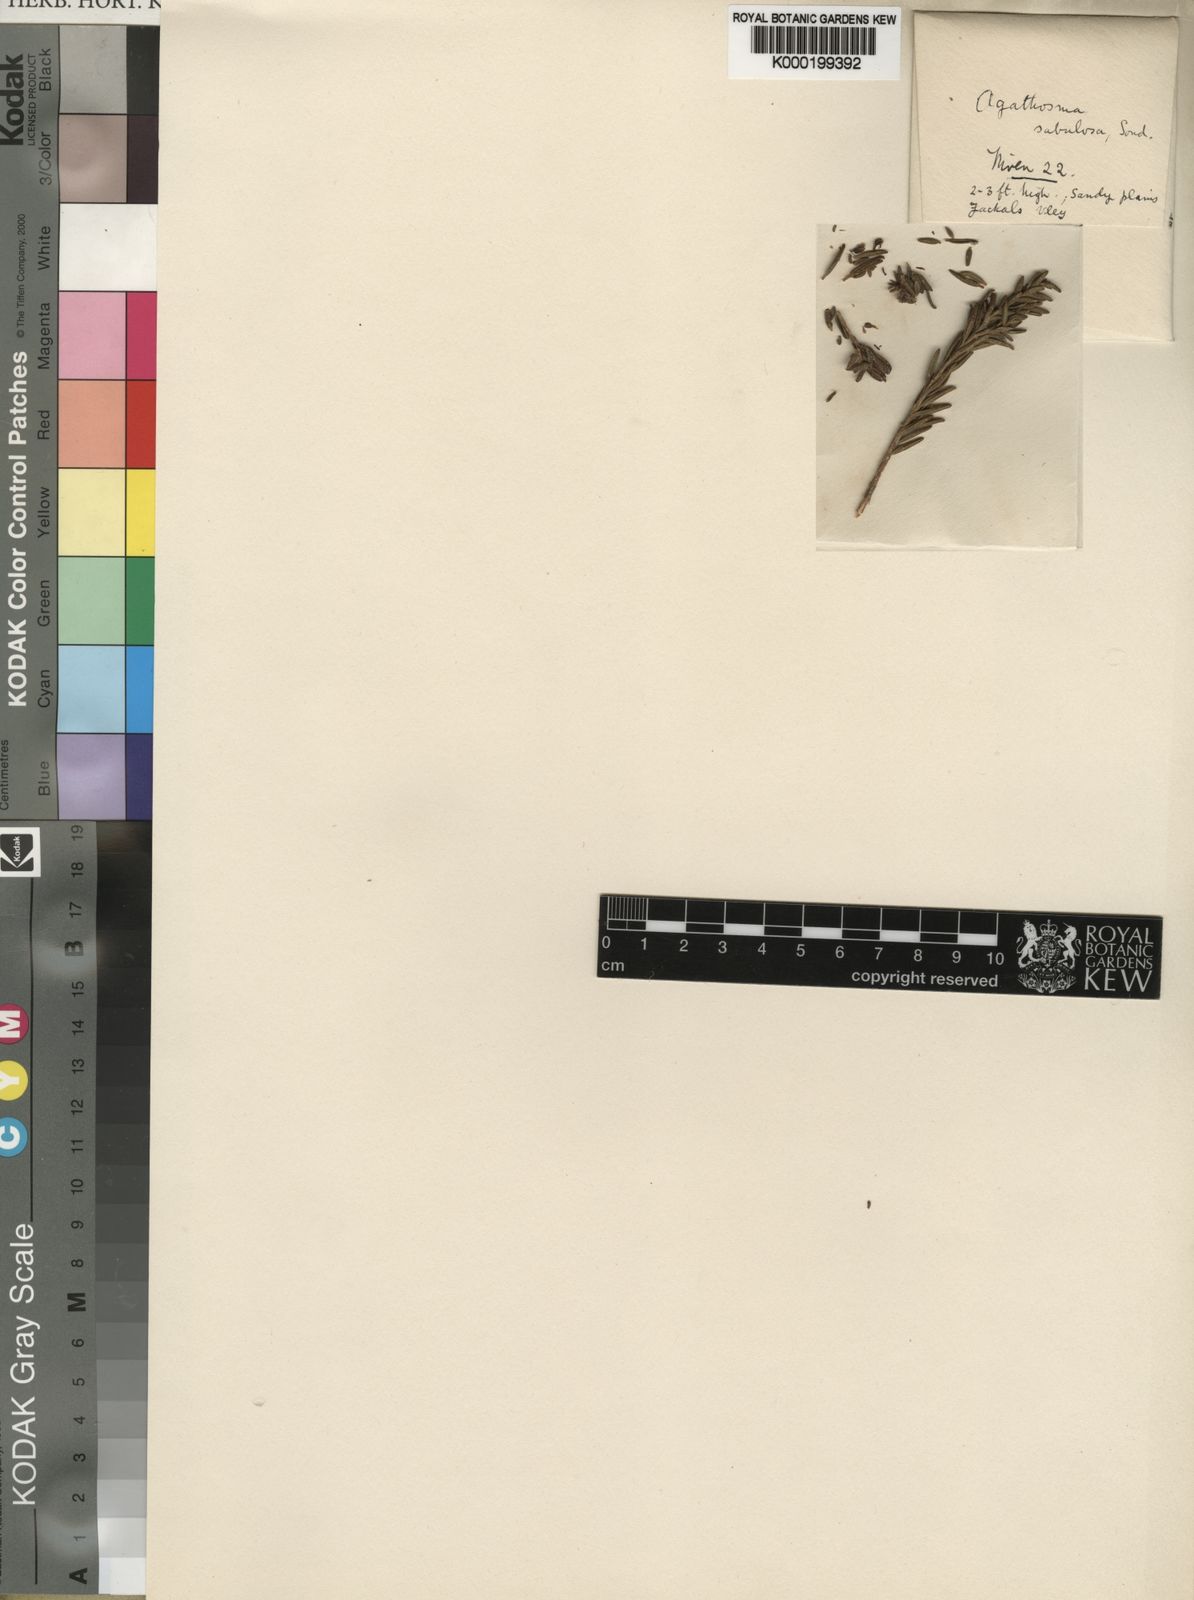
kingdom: Plantae
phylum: Tracheophyta
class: Magnoliopsida
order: Sapindales
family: Rutaceae
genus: Agathosma
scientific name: Agathosma sabulosa
